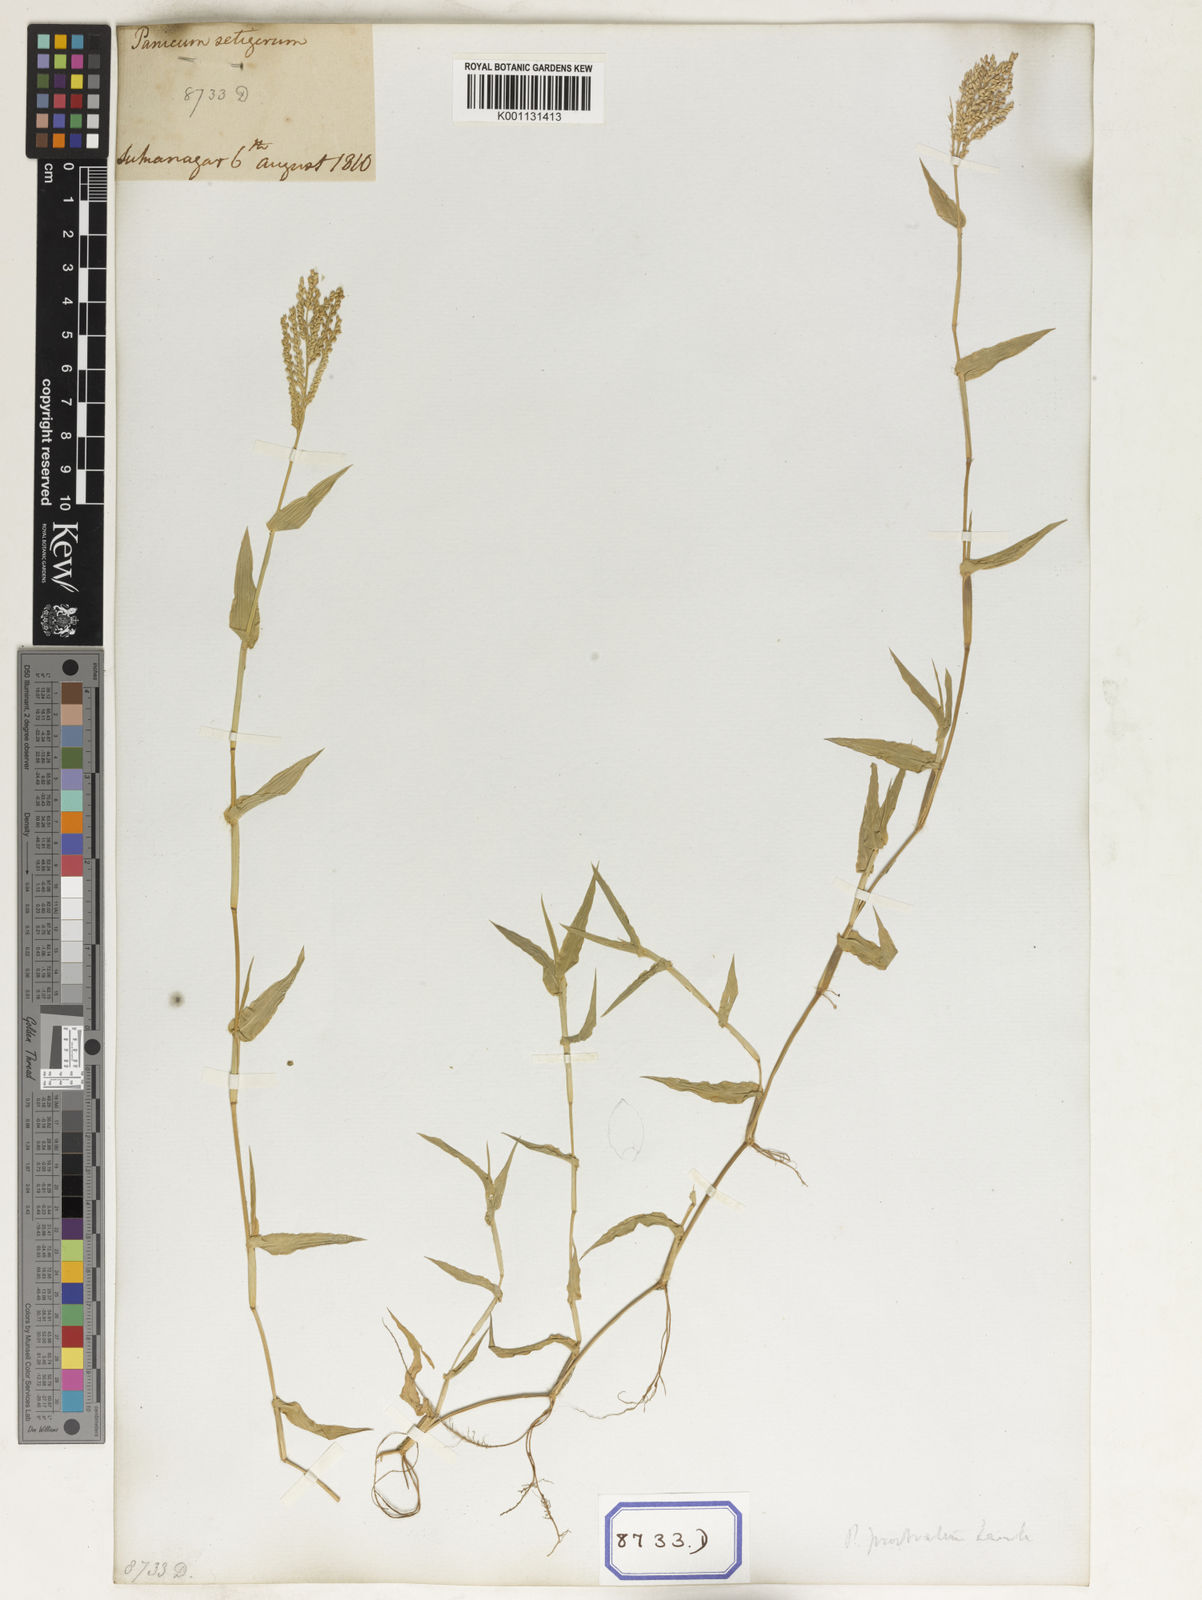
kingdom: Plantae
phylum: Tracheophyta
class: Liliopsida
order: Poales
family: Poaceae
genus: Panicum
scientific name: Panicum
